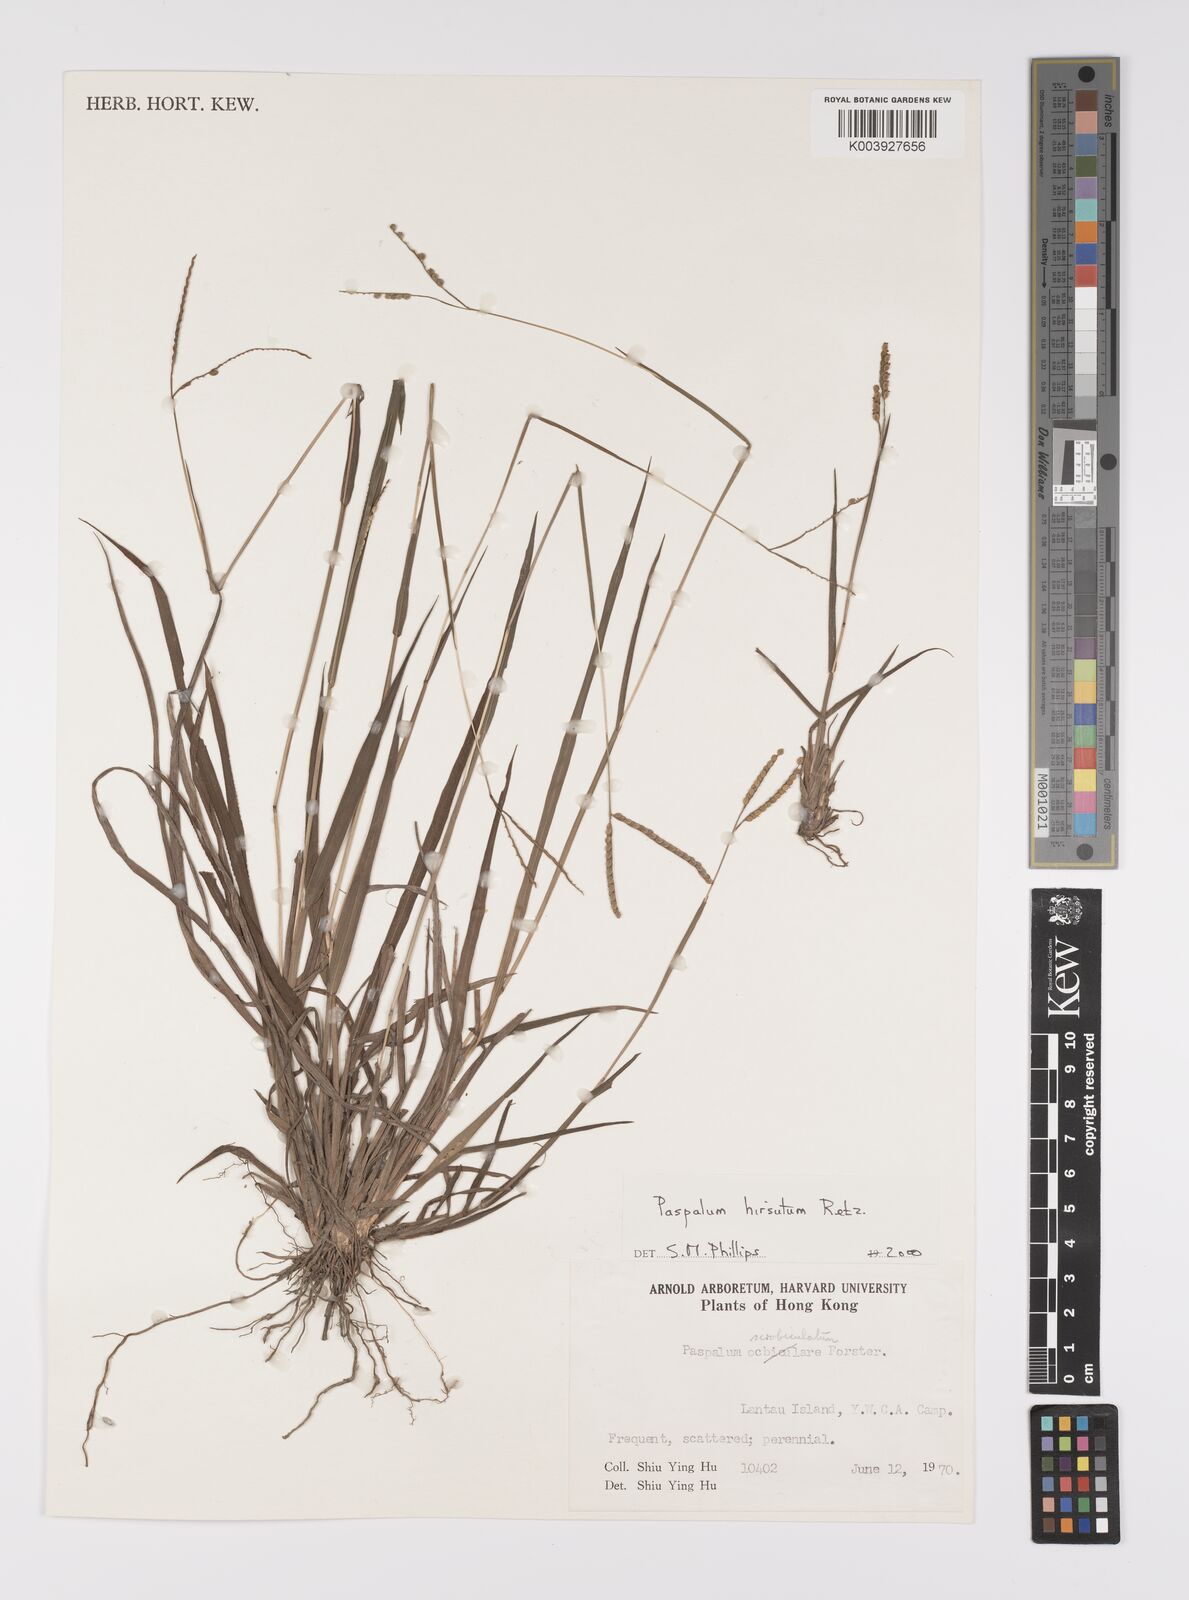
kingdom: Plantae
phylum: Tracheophyta
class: Liliopsida
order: Poales
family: Poaceae
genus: Paspalum
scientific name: Paspalum hirsutum
